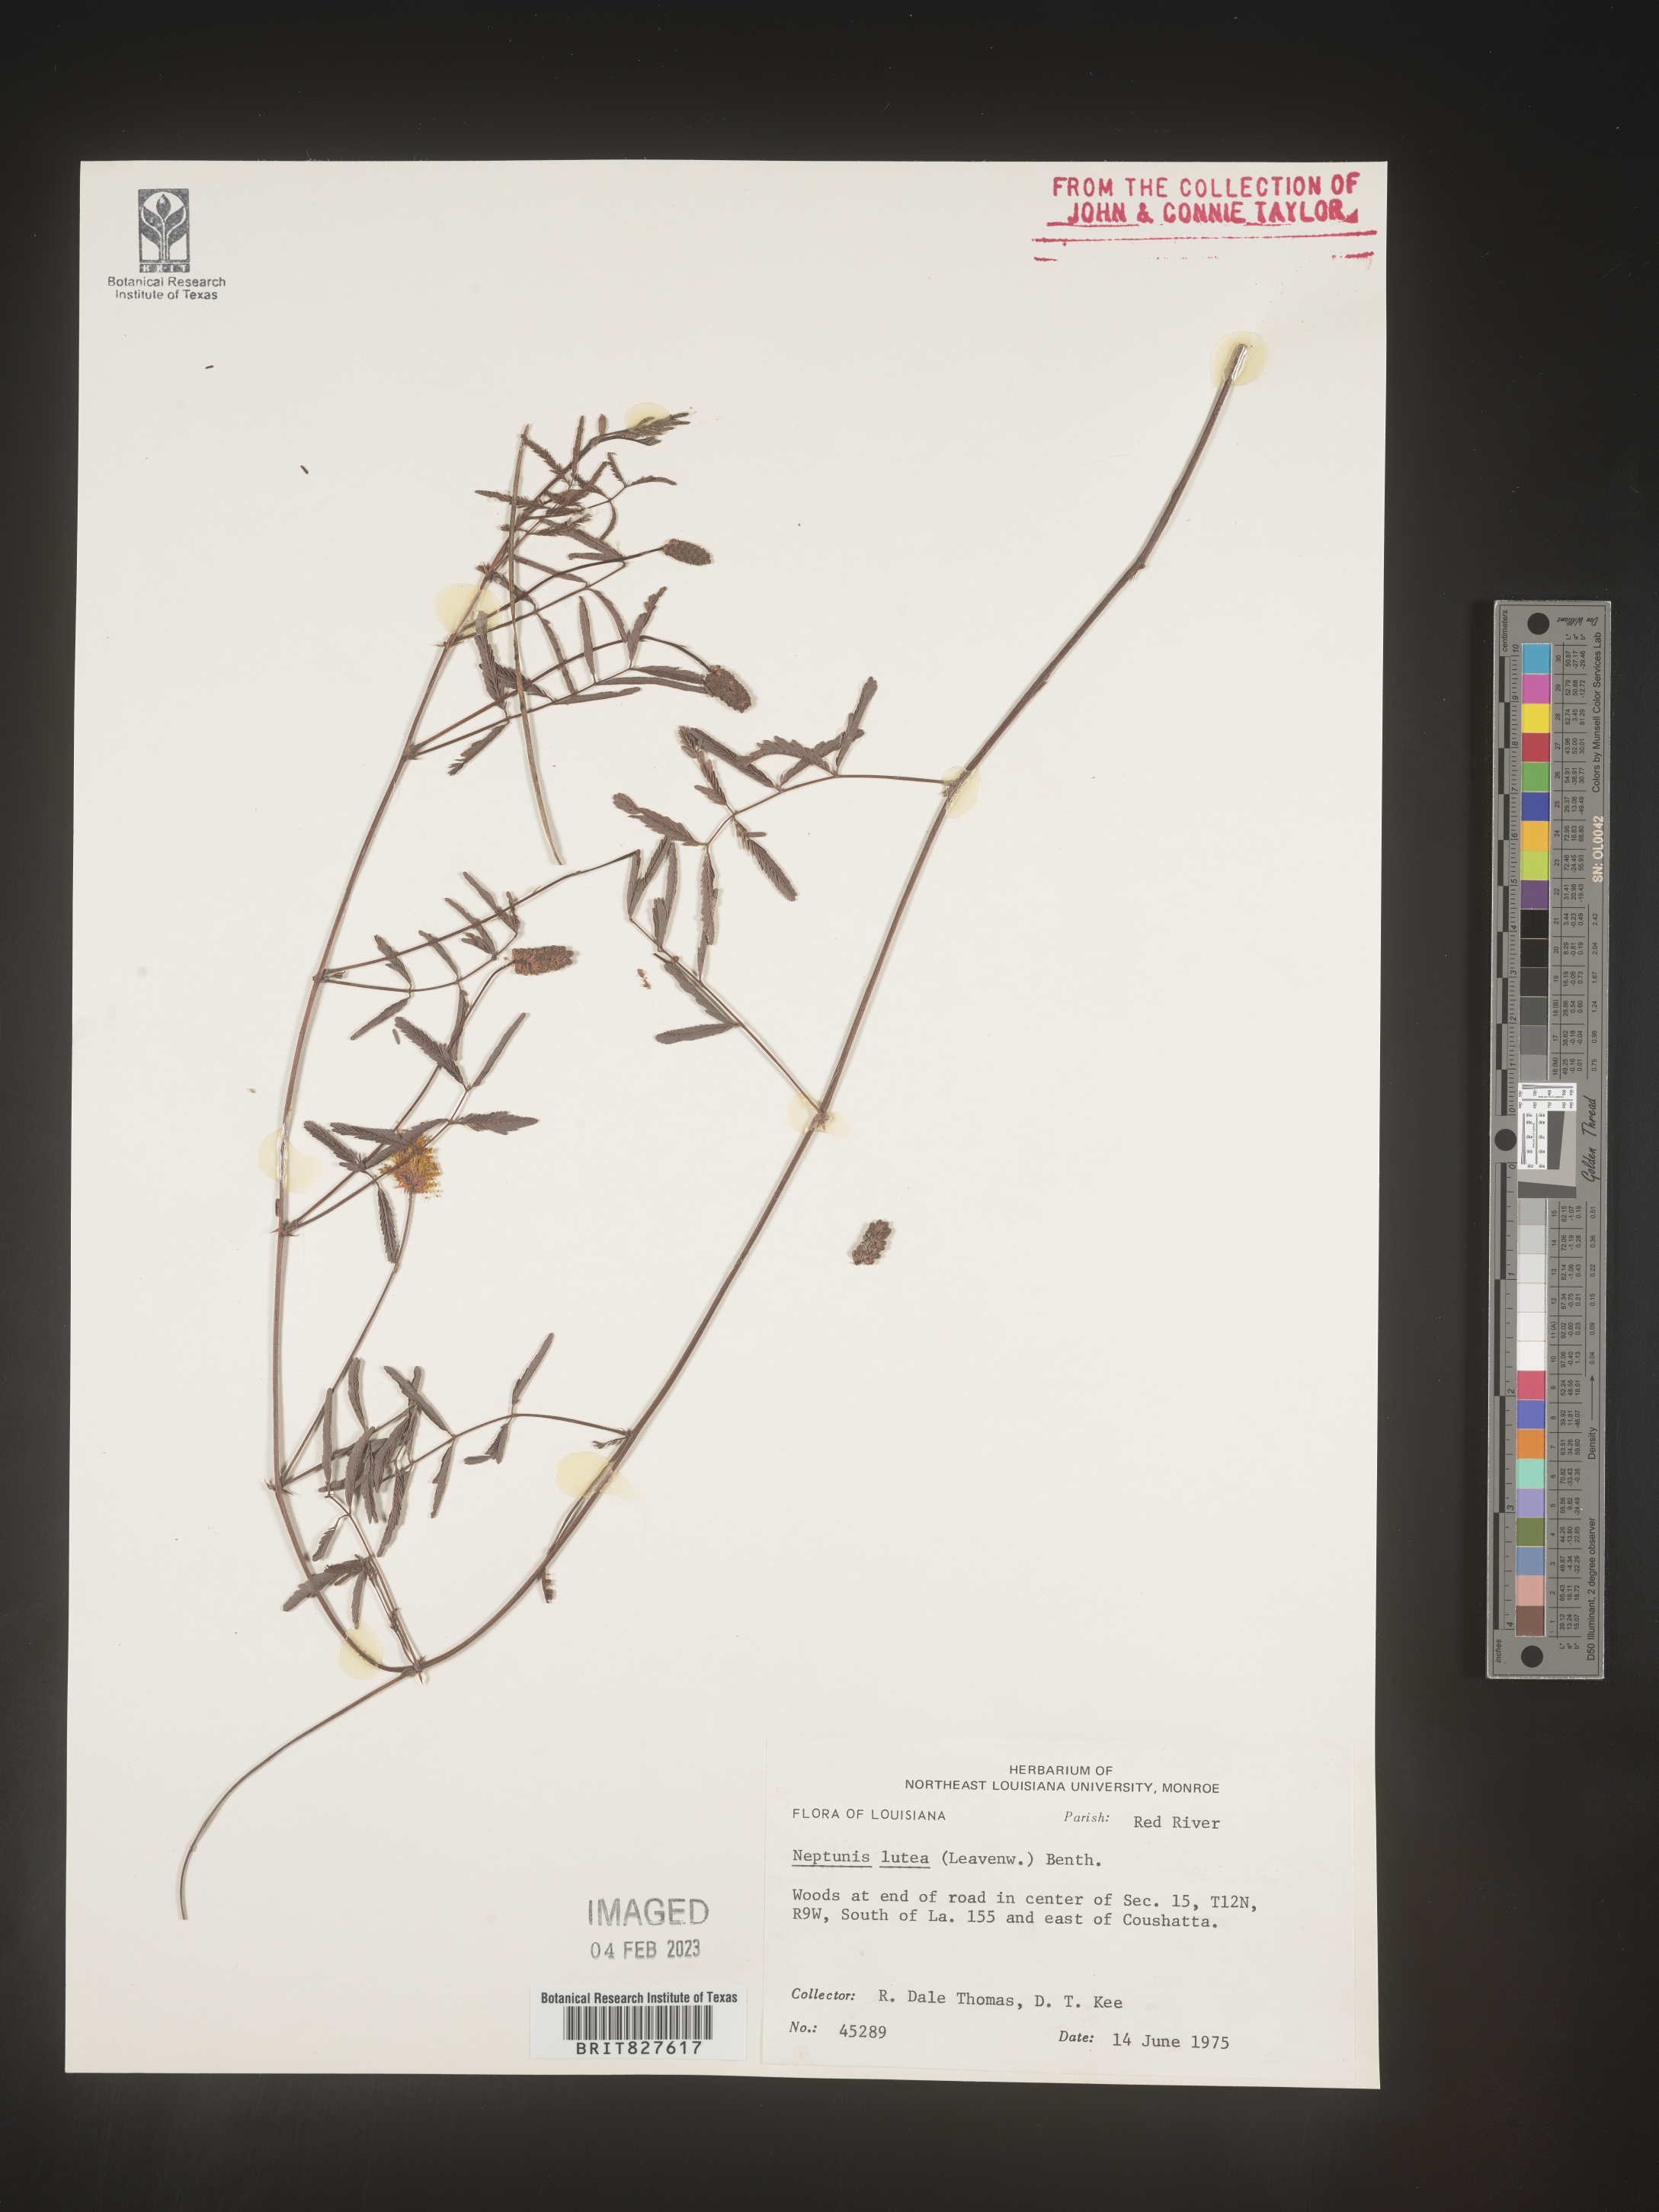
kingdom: Plantae
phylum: Tracheophyta
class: Magnoliopsida
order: Fabales
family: Fabaceae
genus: Neptunia
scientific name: Neptunia lutea
